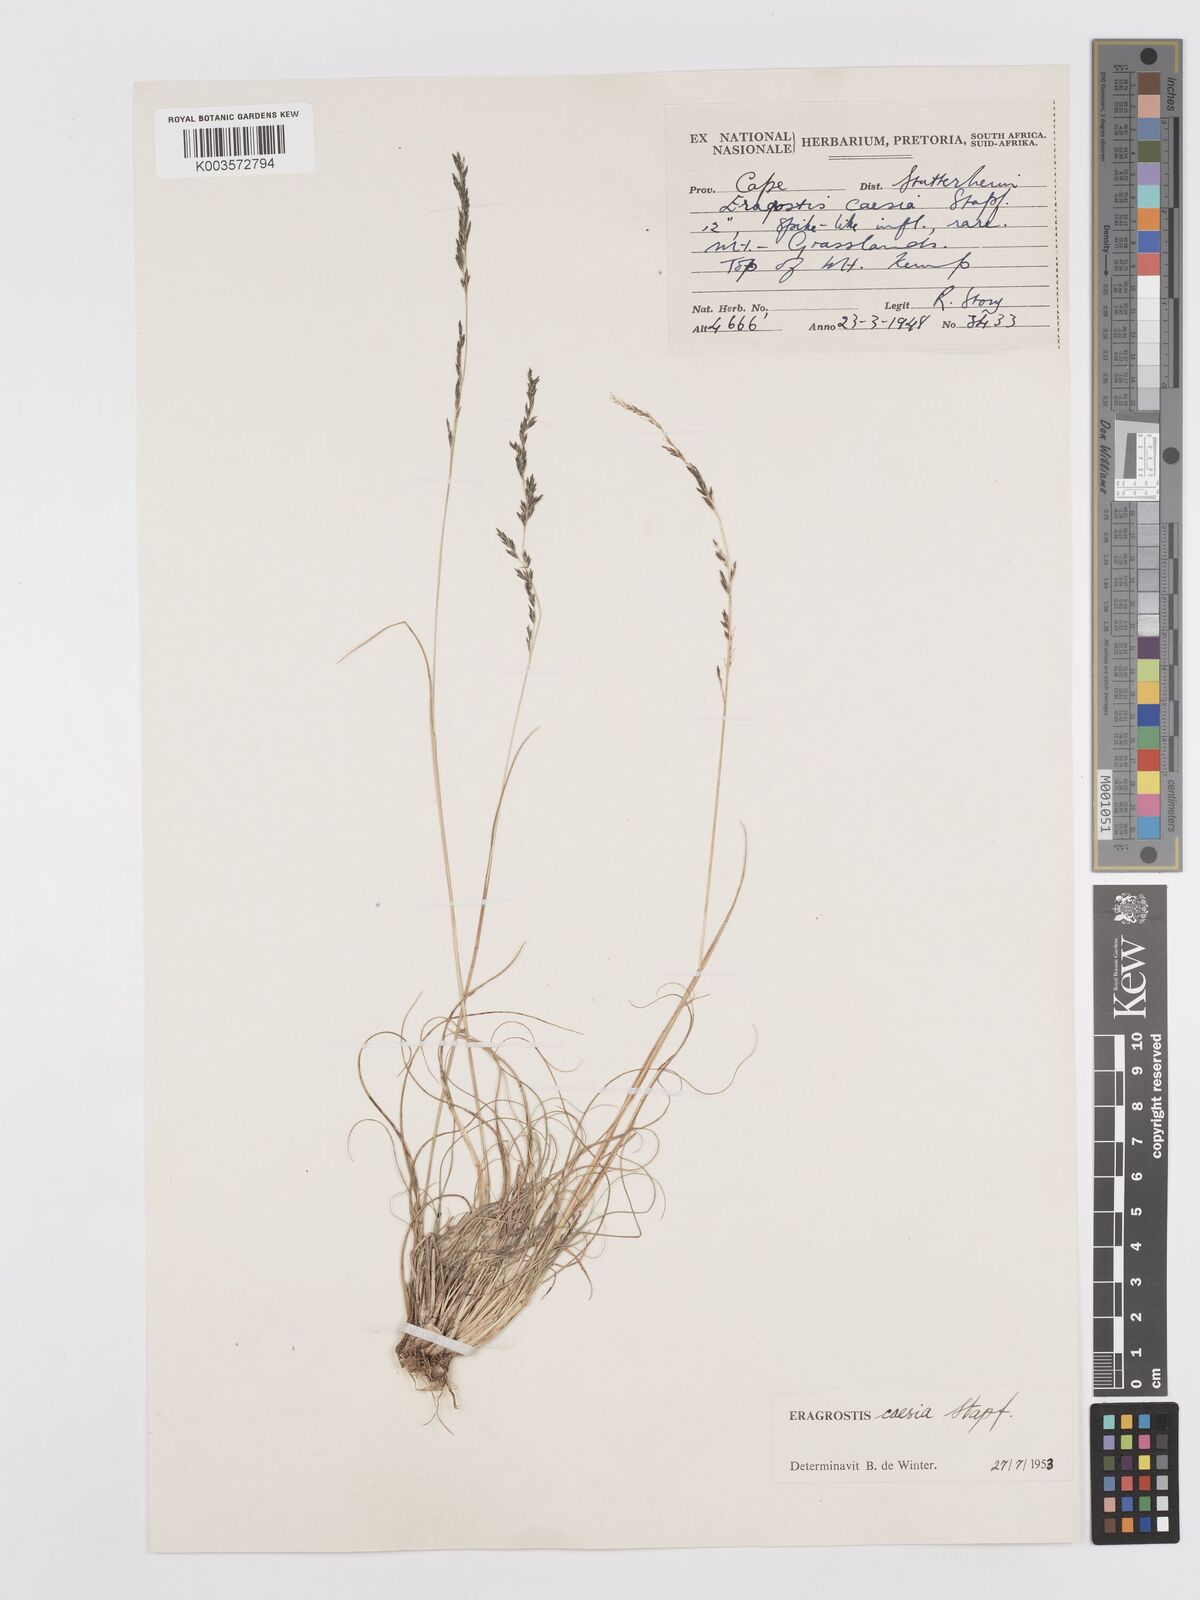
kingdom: Plantae
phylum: Tracheophyta
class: Liliopsida
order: Poales
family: Poaceae
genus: Eragrostis
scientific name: Eragrostis caesia
